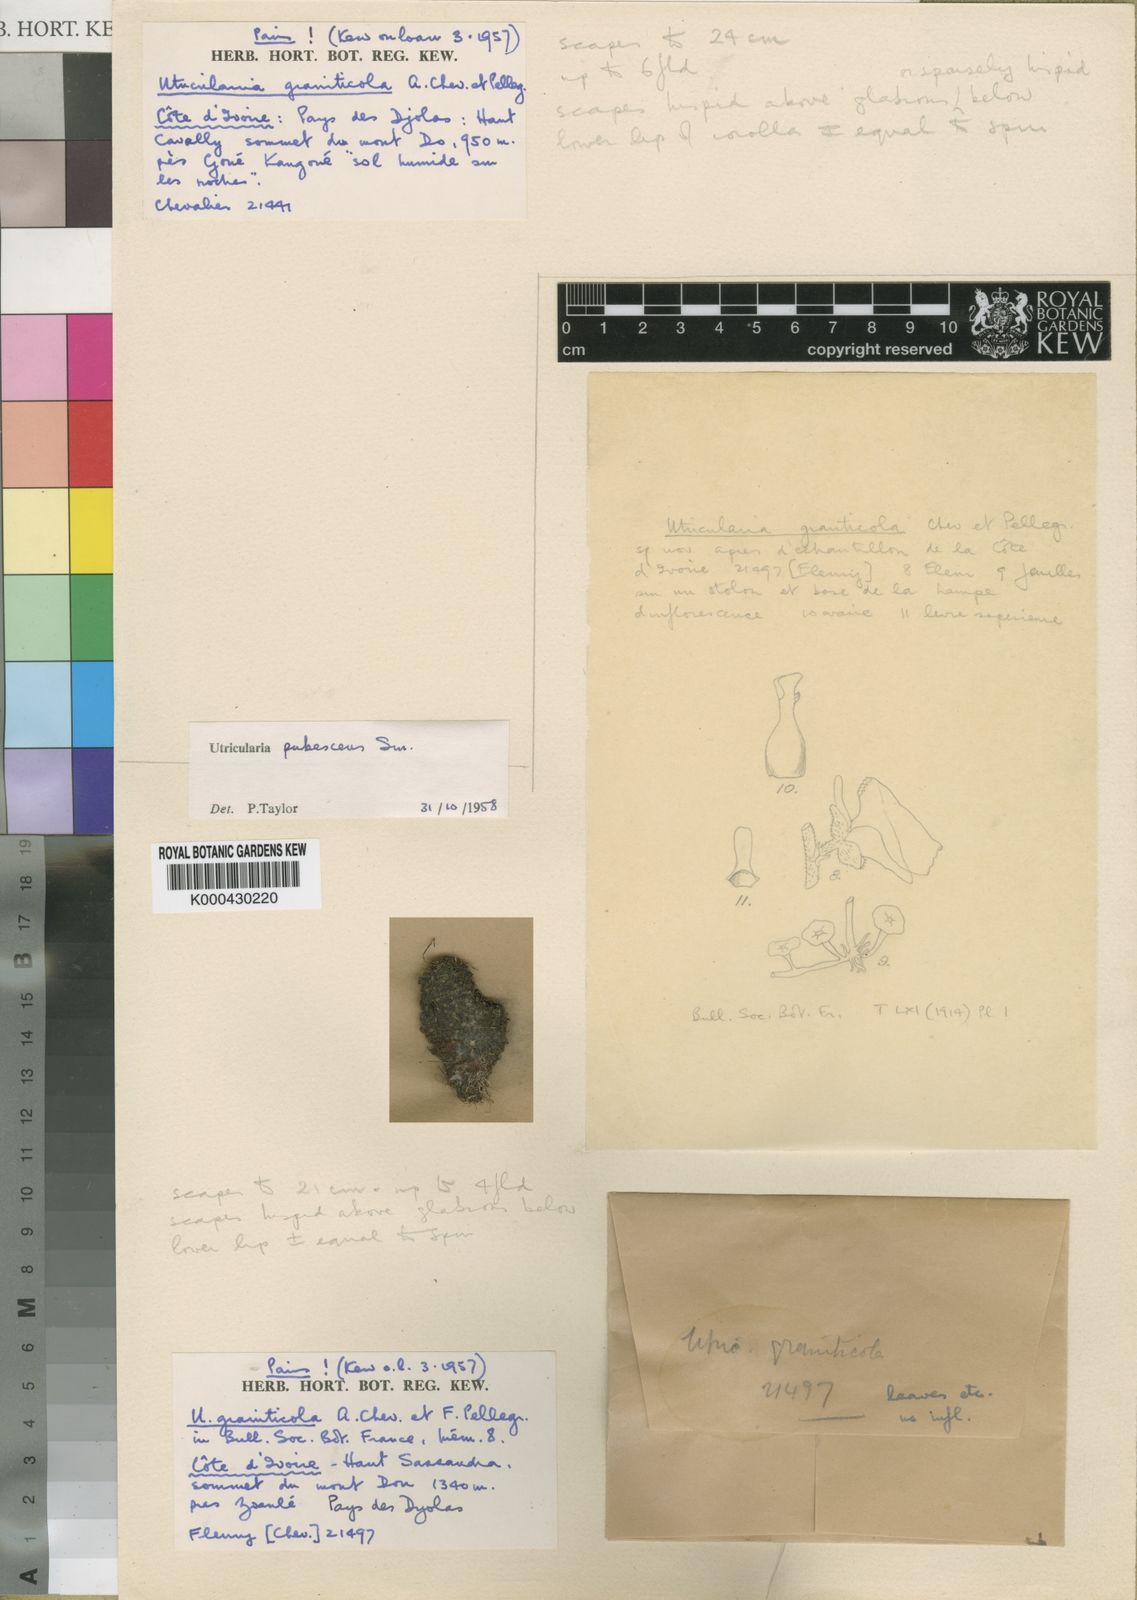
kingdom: Plantae
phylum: Tracheophyta
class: Magnoliopsida
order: Lamiales
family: Lentibulariaceae
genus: Utricularia
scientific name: Utricularia pubescens
